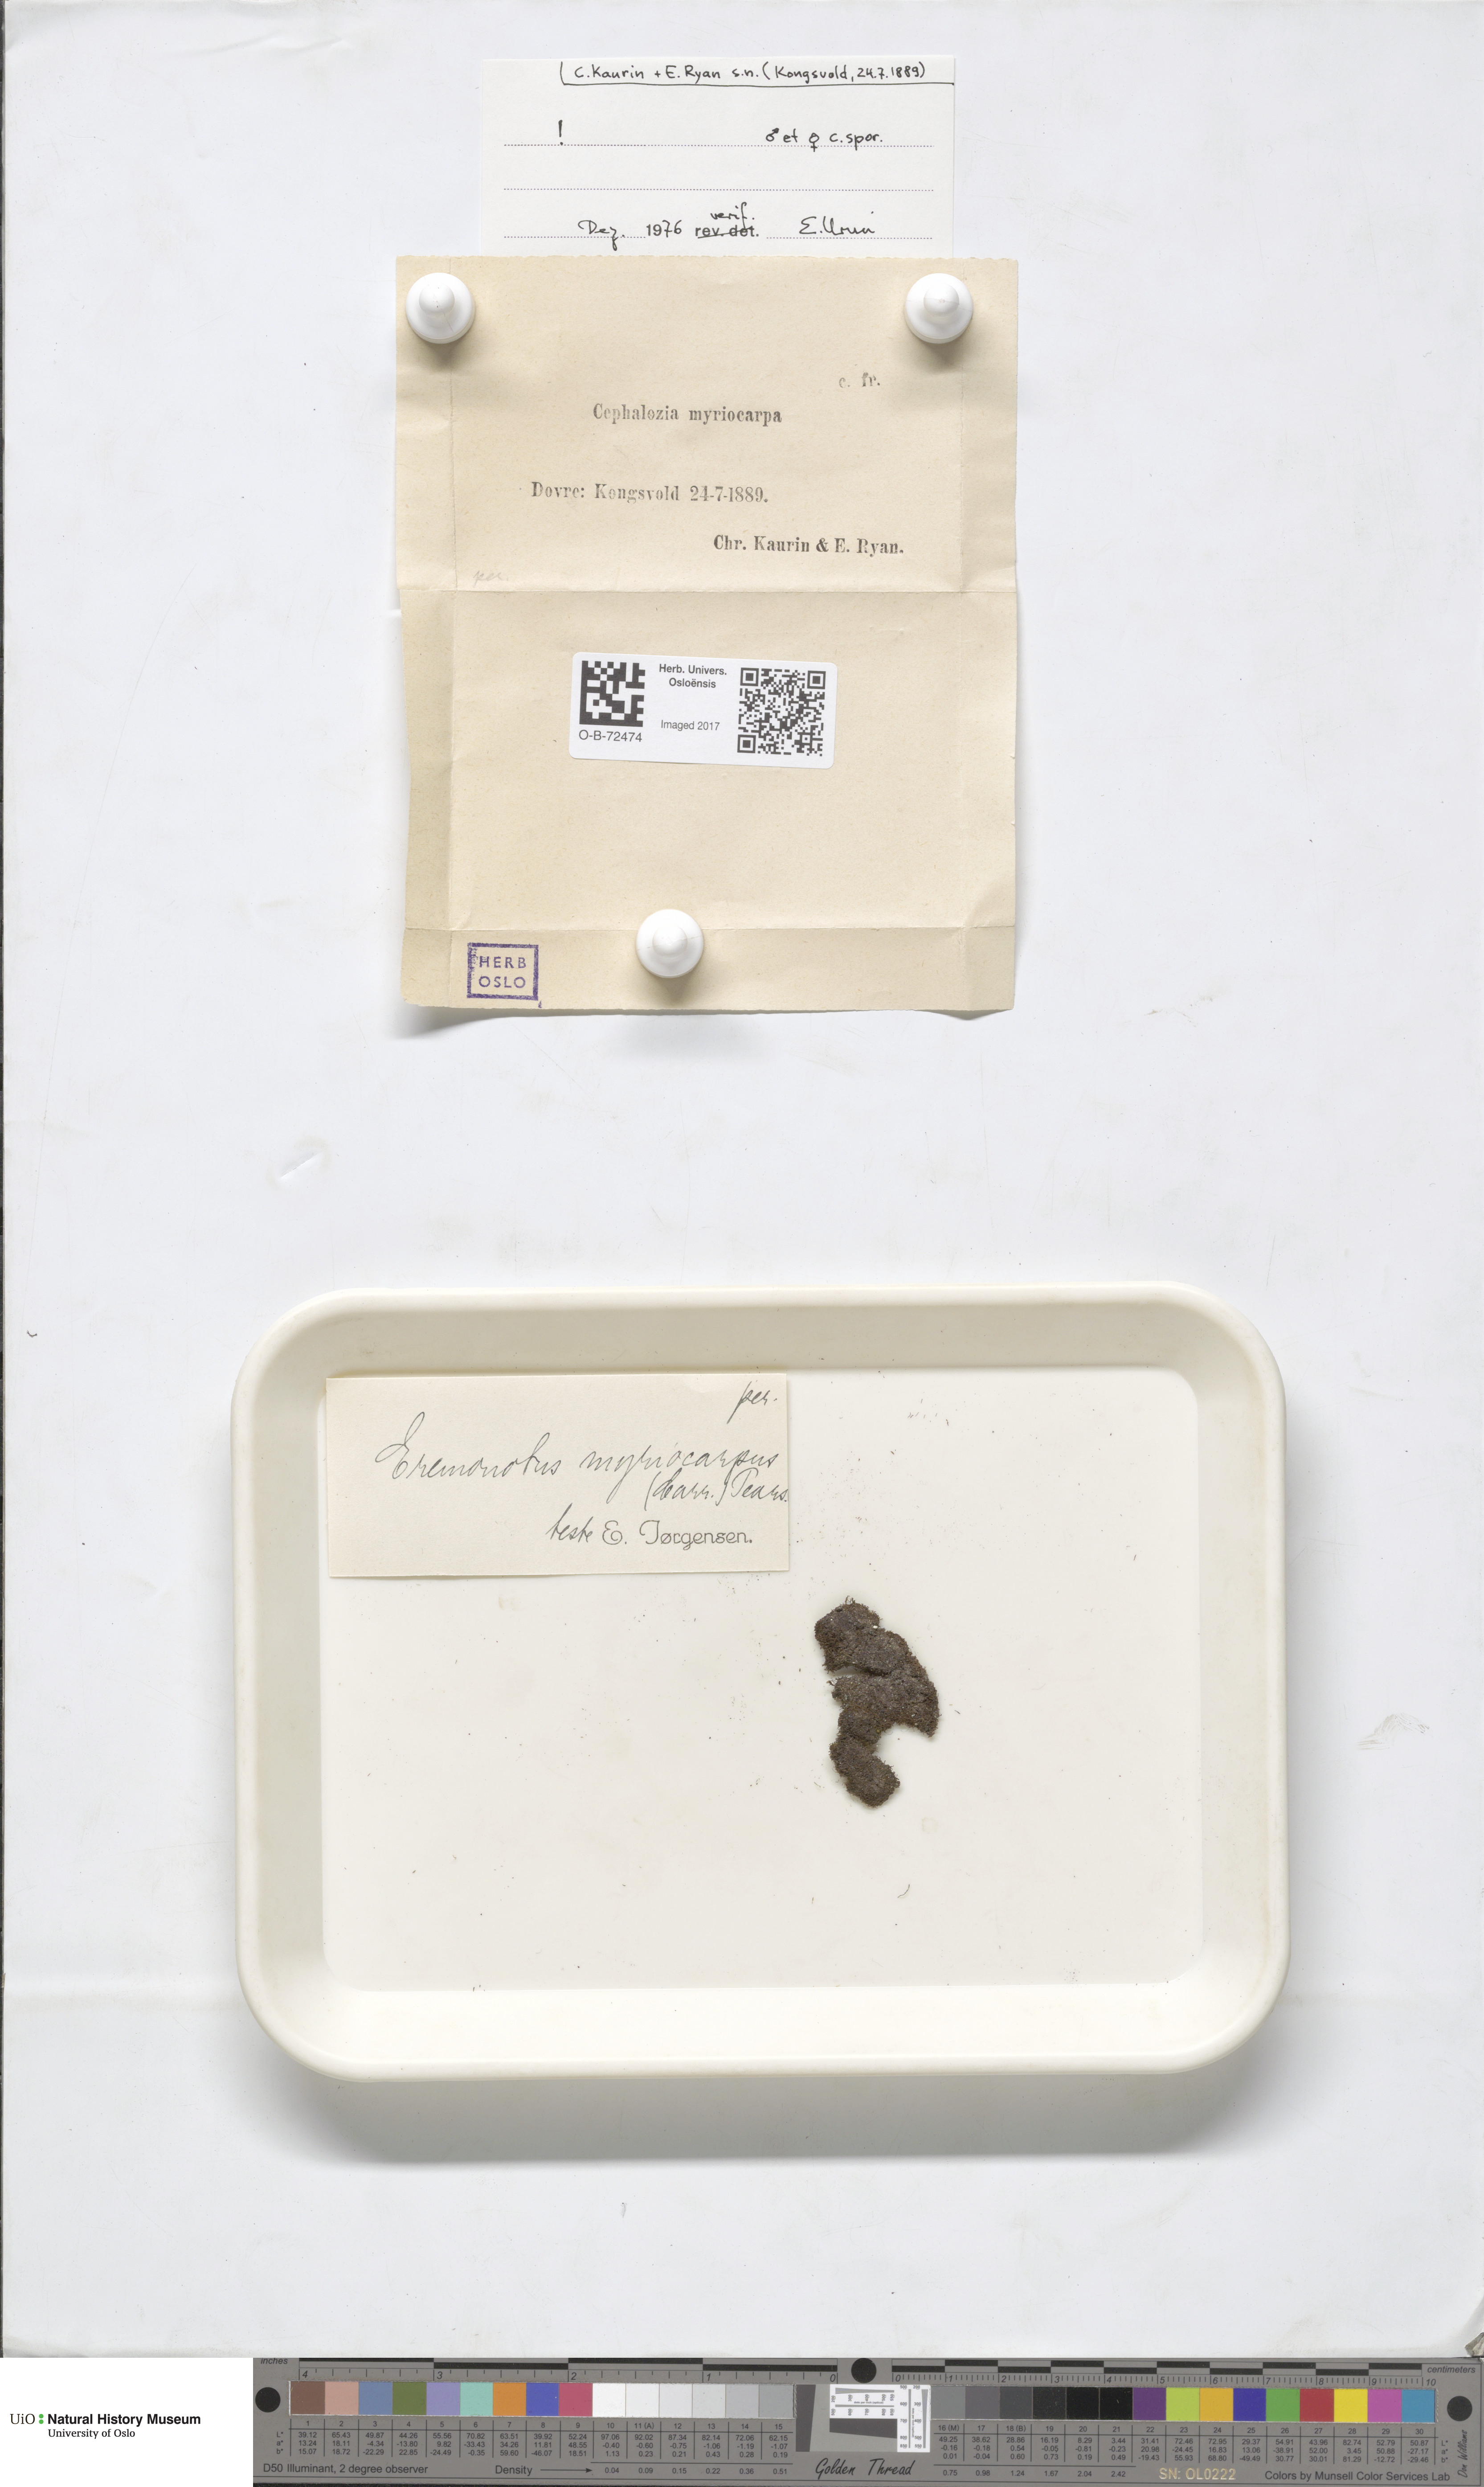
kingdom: Plantae
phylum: Marchantiophyta
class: Jungermanniopsida
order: Jungermanniales
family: Jungermanniaceae
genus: Eremonotus
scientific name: Eremonotus myriocarpus
